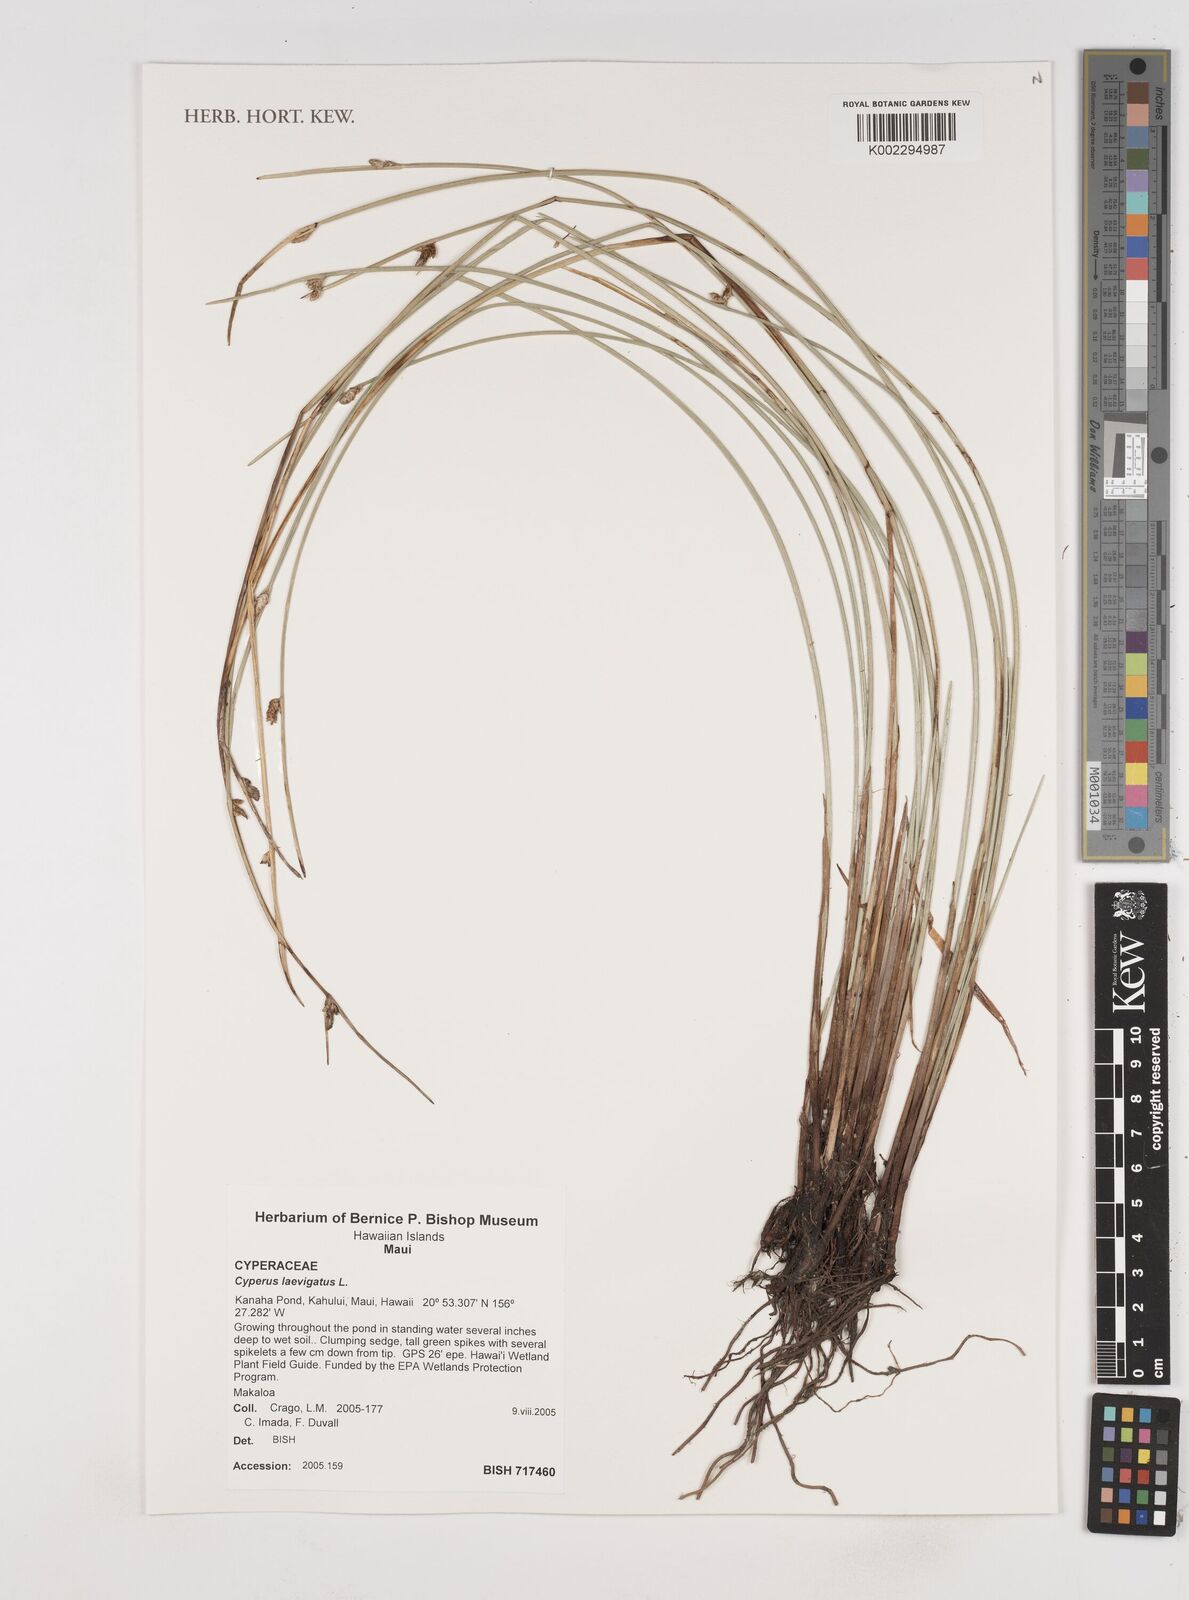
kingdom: Plantae
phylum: Tracheophyta
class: Liliopsida
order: Poales
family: Cyperaceae
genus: Cyperus
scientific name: Cyperus laevigatus
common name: Smooth flat sedge
